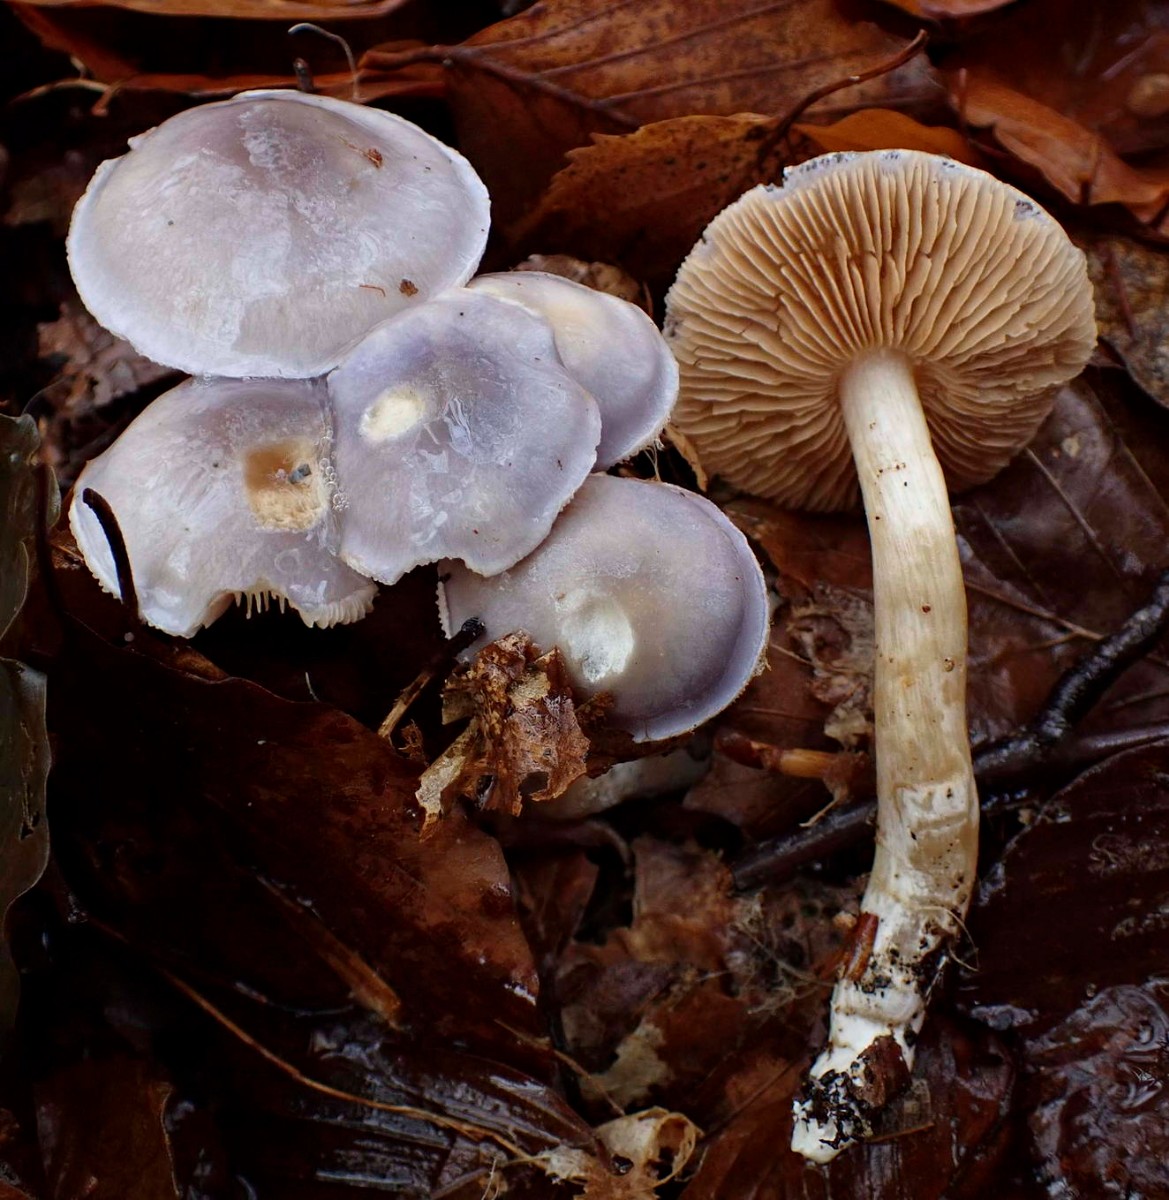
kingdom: Fungi
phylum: Basidiomycota
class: Agaricomycetes
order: Agaricales
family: Cortinariaceae
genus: Thaxterogaster
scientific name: Thaxterogaster croceocoeruleus
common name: blågullig slørhat
